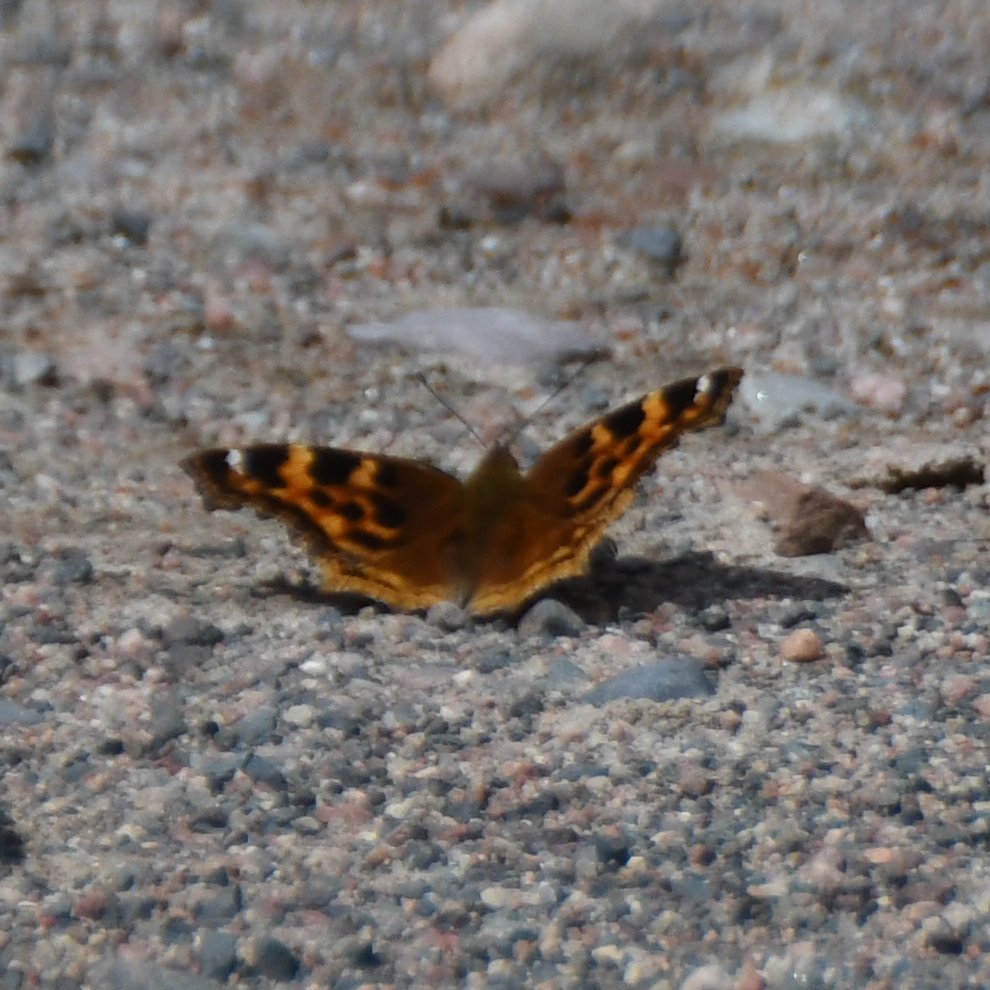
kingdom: Animalia
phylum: Arthropoda
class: Insecta
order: Lepidoptera
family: Nymphalidae
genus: Polygonia
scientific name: Polygonia vaualbum
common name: Compton Tortoiseshell
